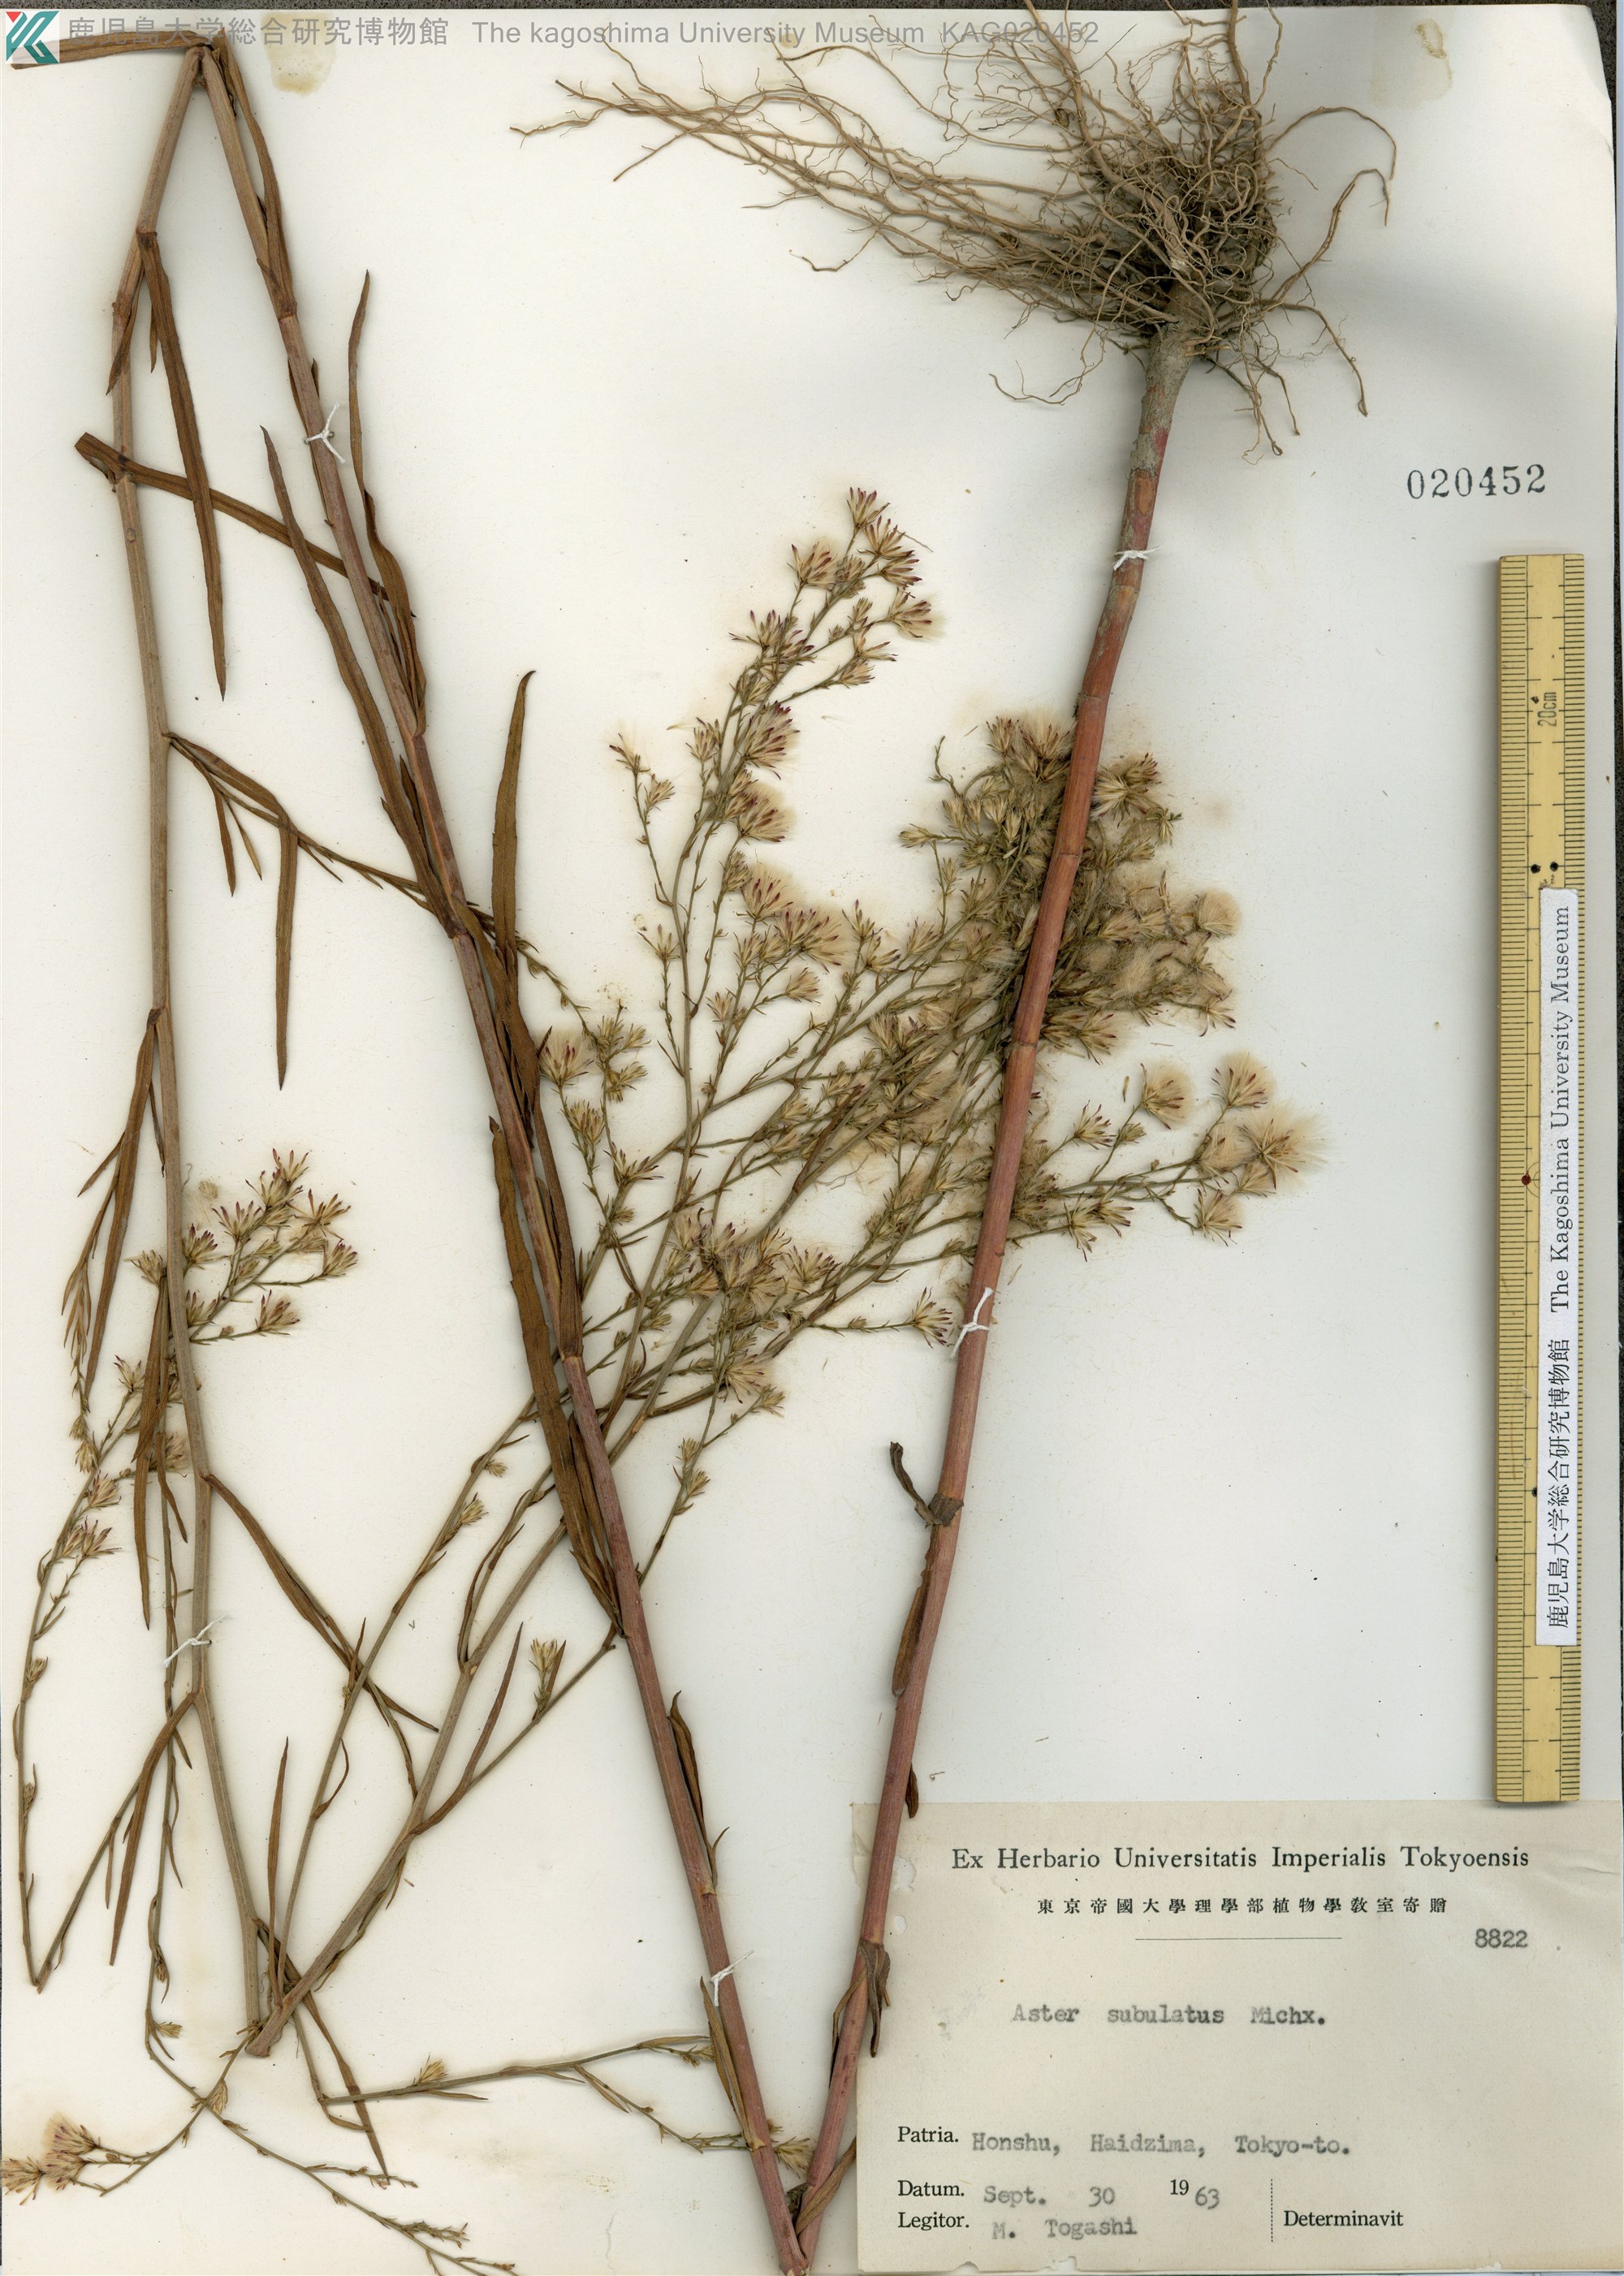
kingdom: Plantae
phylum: Tracheophyta
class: Magnoliopsida
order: Asterales
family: Asteraceae
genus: Symphyotrichum
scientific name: Symphyotrichum subulatum
